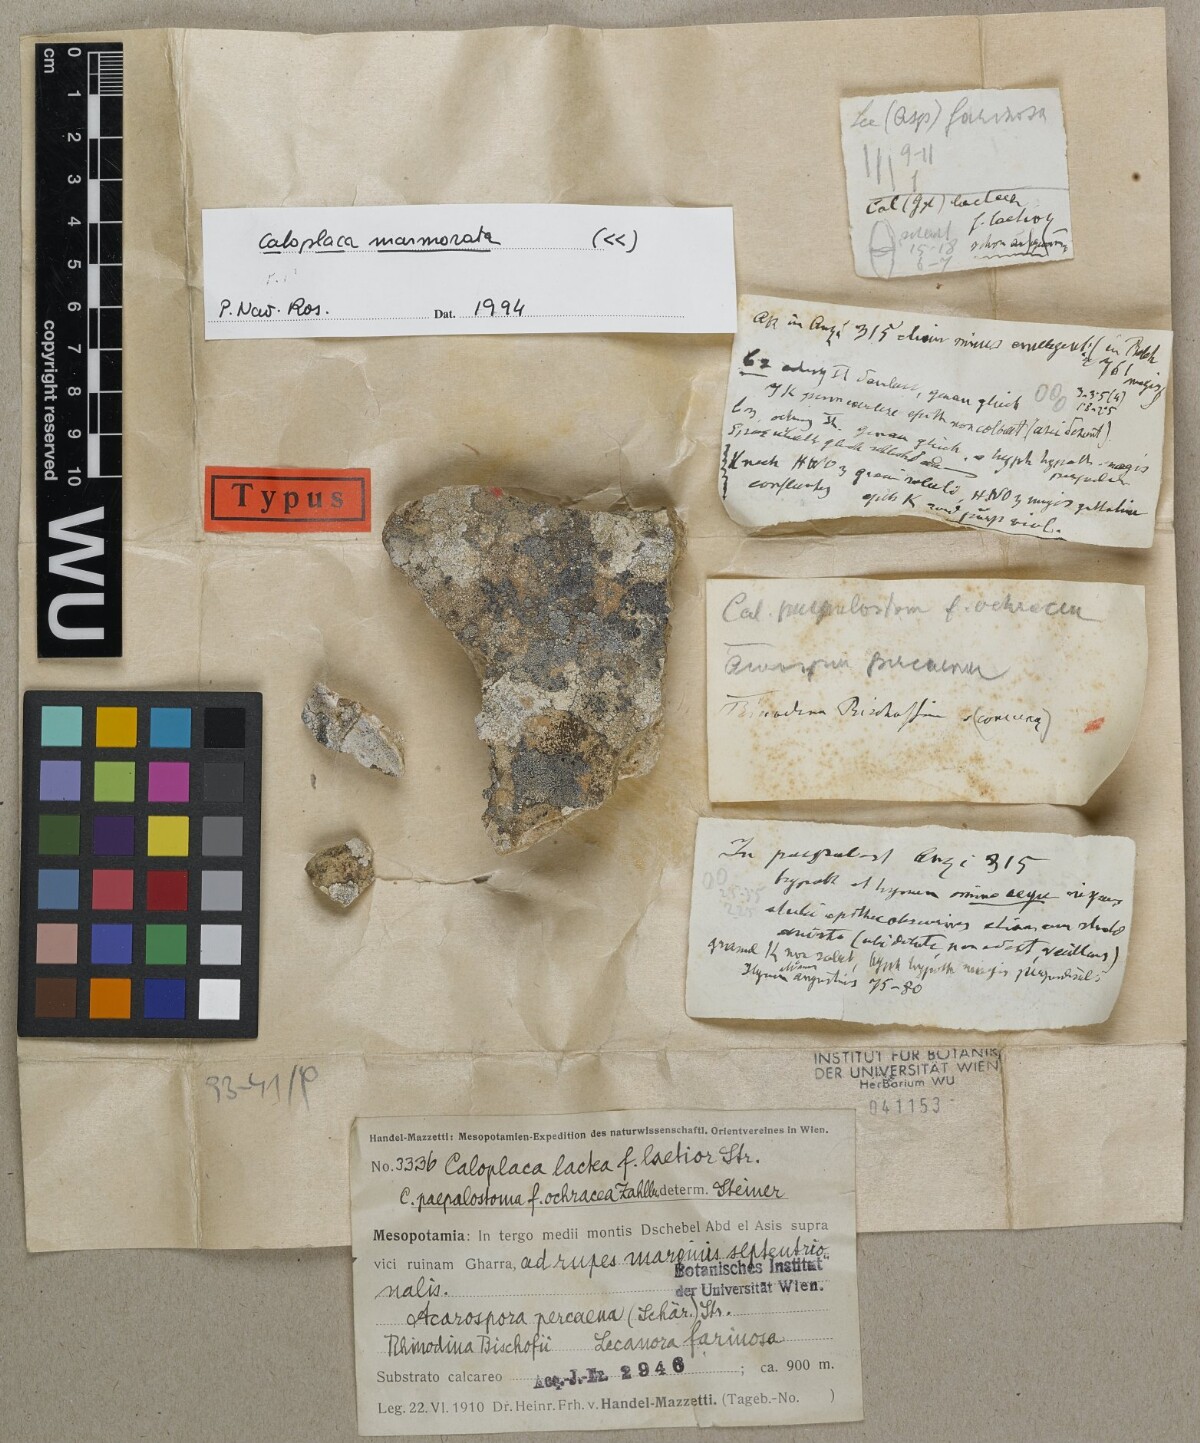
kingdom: Fungi
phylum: Ascomycota
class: Lecanoromycetes
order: Teloschistales
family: Teloschistaceae
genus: Caloplaca
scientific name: Caloplaca lactea
